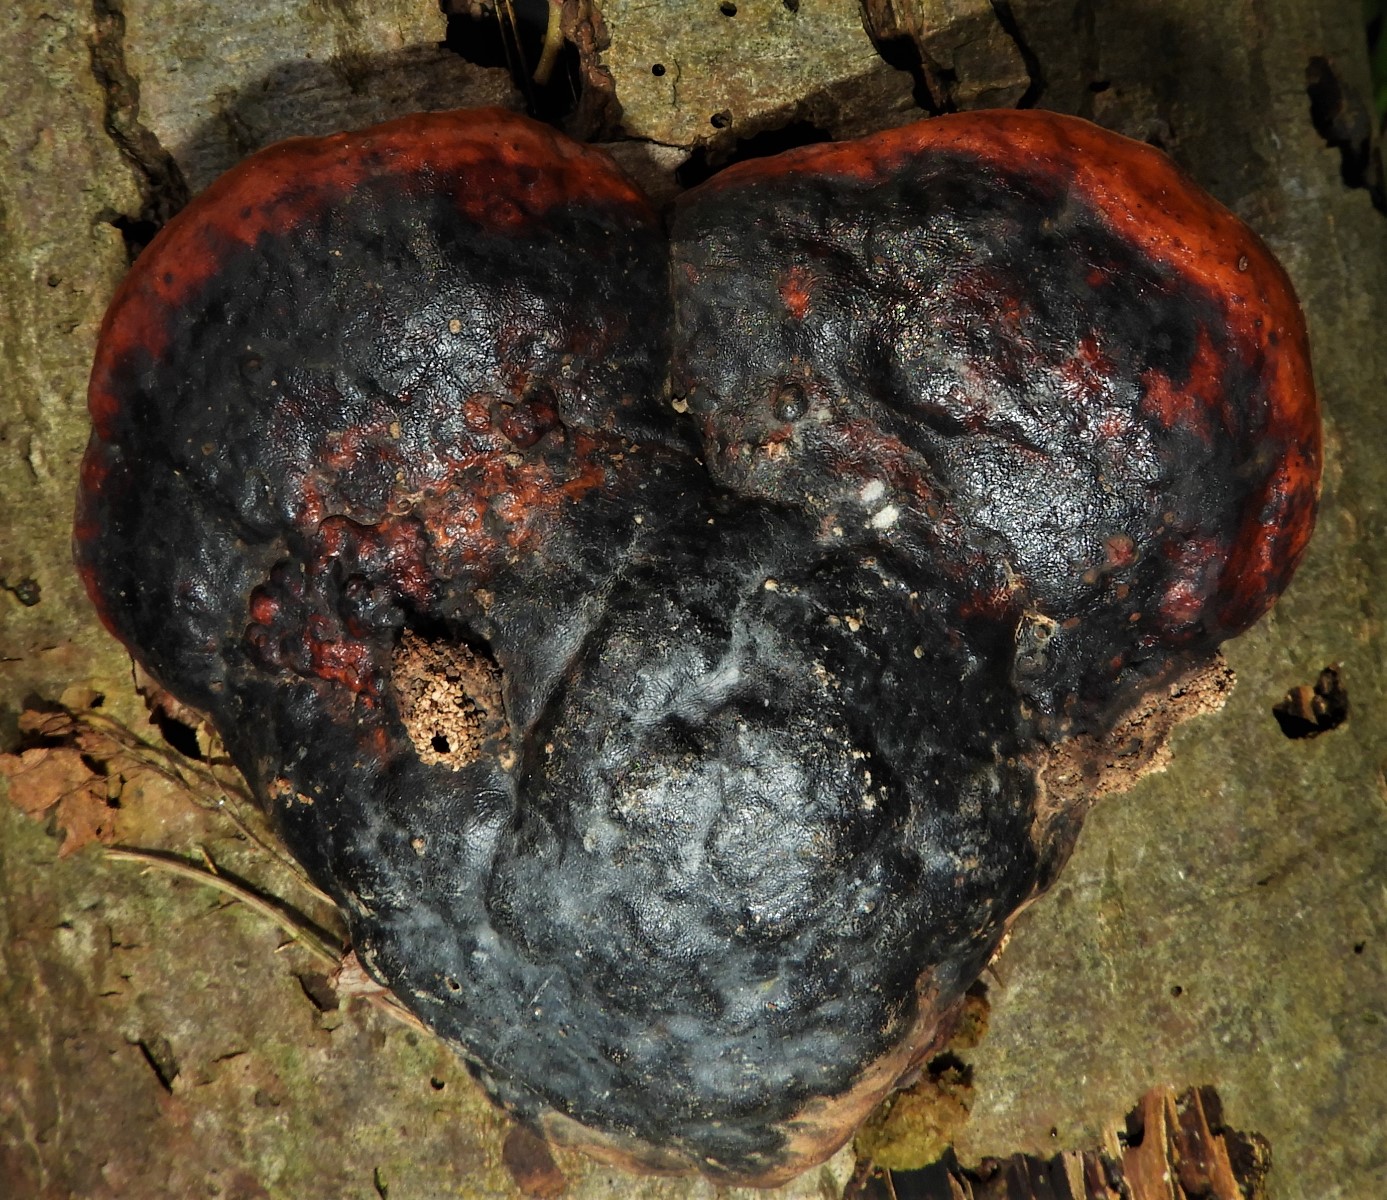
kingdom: Fungi
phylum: Basidiomycota
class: Agaricomycetes
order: Polyporales
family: Fomitopsidaceae
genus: Fomitopsis
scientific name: Fomitopsis pinicola
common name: randbæltet hovporesvamp
